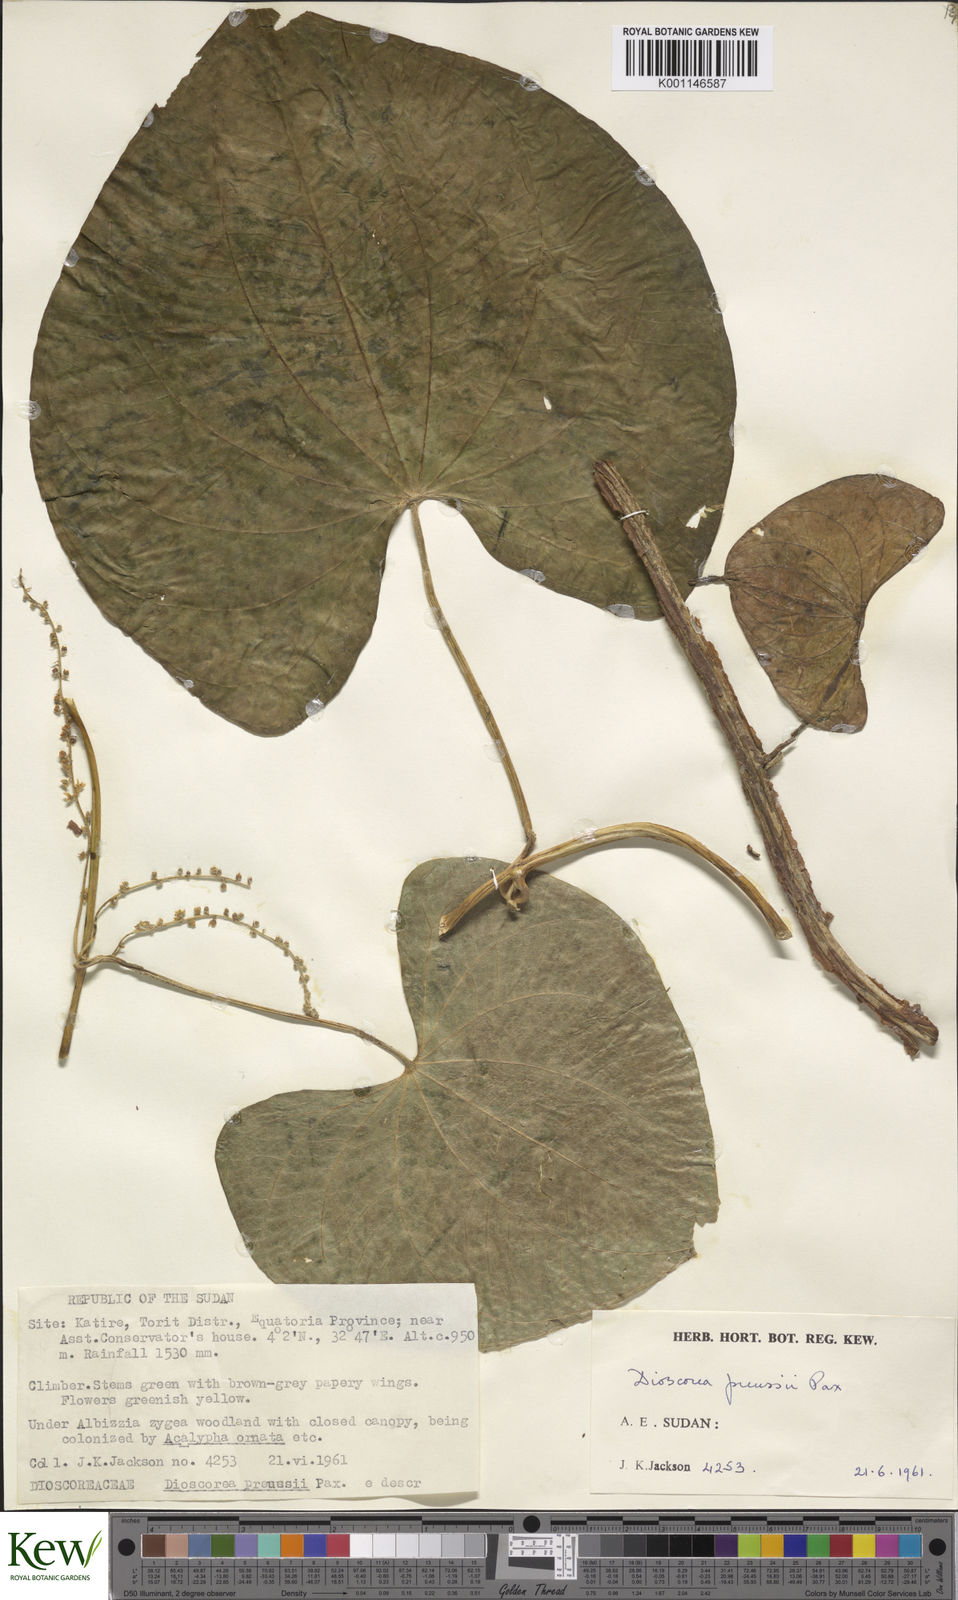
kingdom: Plantae
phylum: Tracheophyta
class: Liliopsida
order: Dioscoreales
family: Dioscoreaceae
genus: Dioscorea
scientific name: Dioscorea preussii
